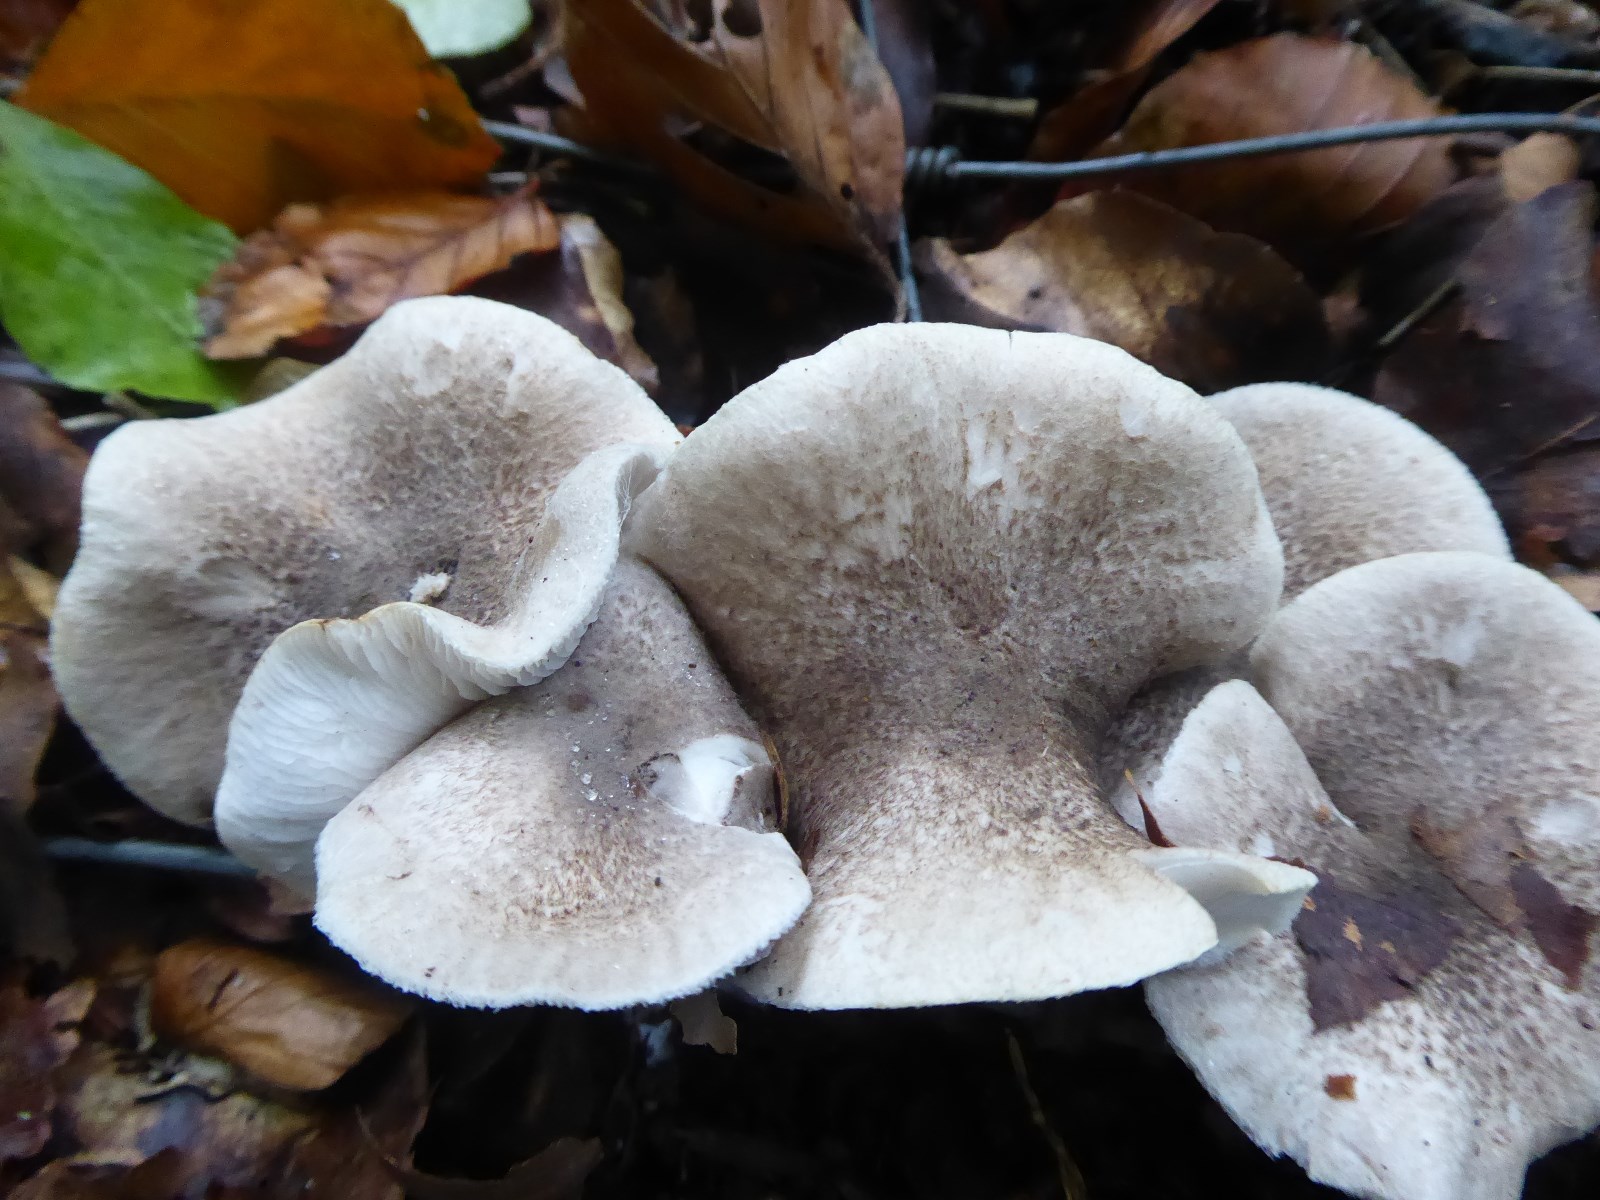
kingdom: Fungi
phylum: Basidiomycota
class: Agaricomycetes
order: Agaricales
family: Tricholomataceae
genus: Tricholoma
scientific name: Tricholoma scalpturatum
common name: gulplettet ridderhat
